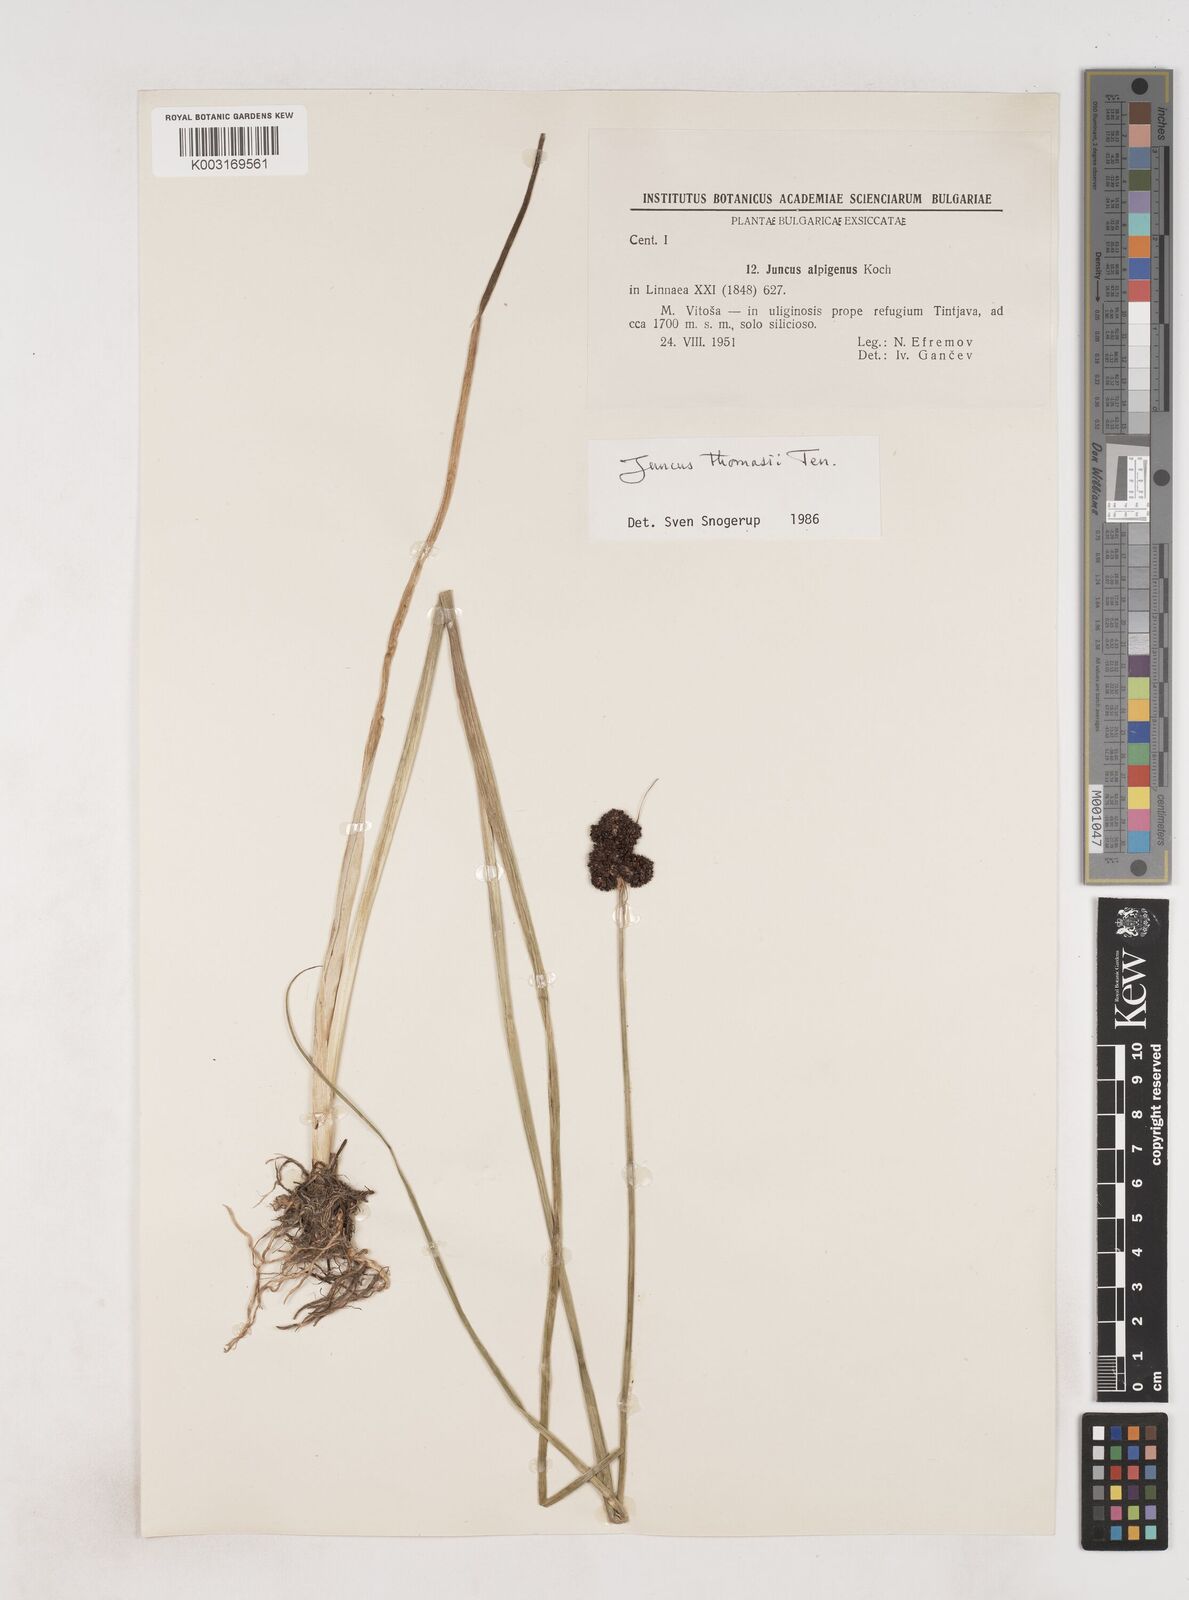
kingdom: Plantae
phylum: Tracheophyta
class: Liliopsida
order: Poales
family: Juncaceae
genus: Juncus
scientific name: Juncus alpigenus
